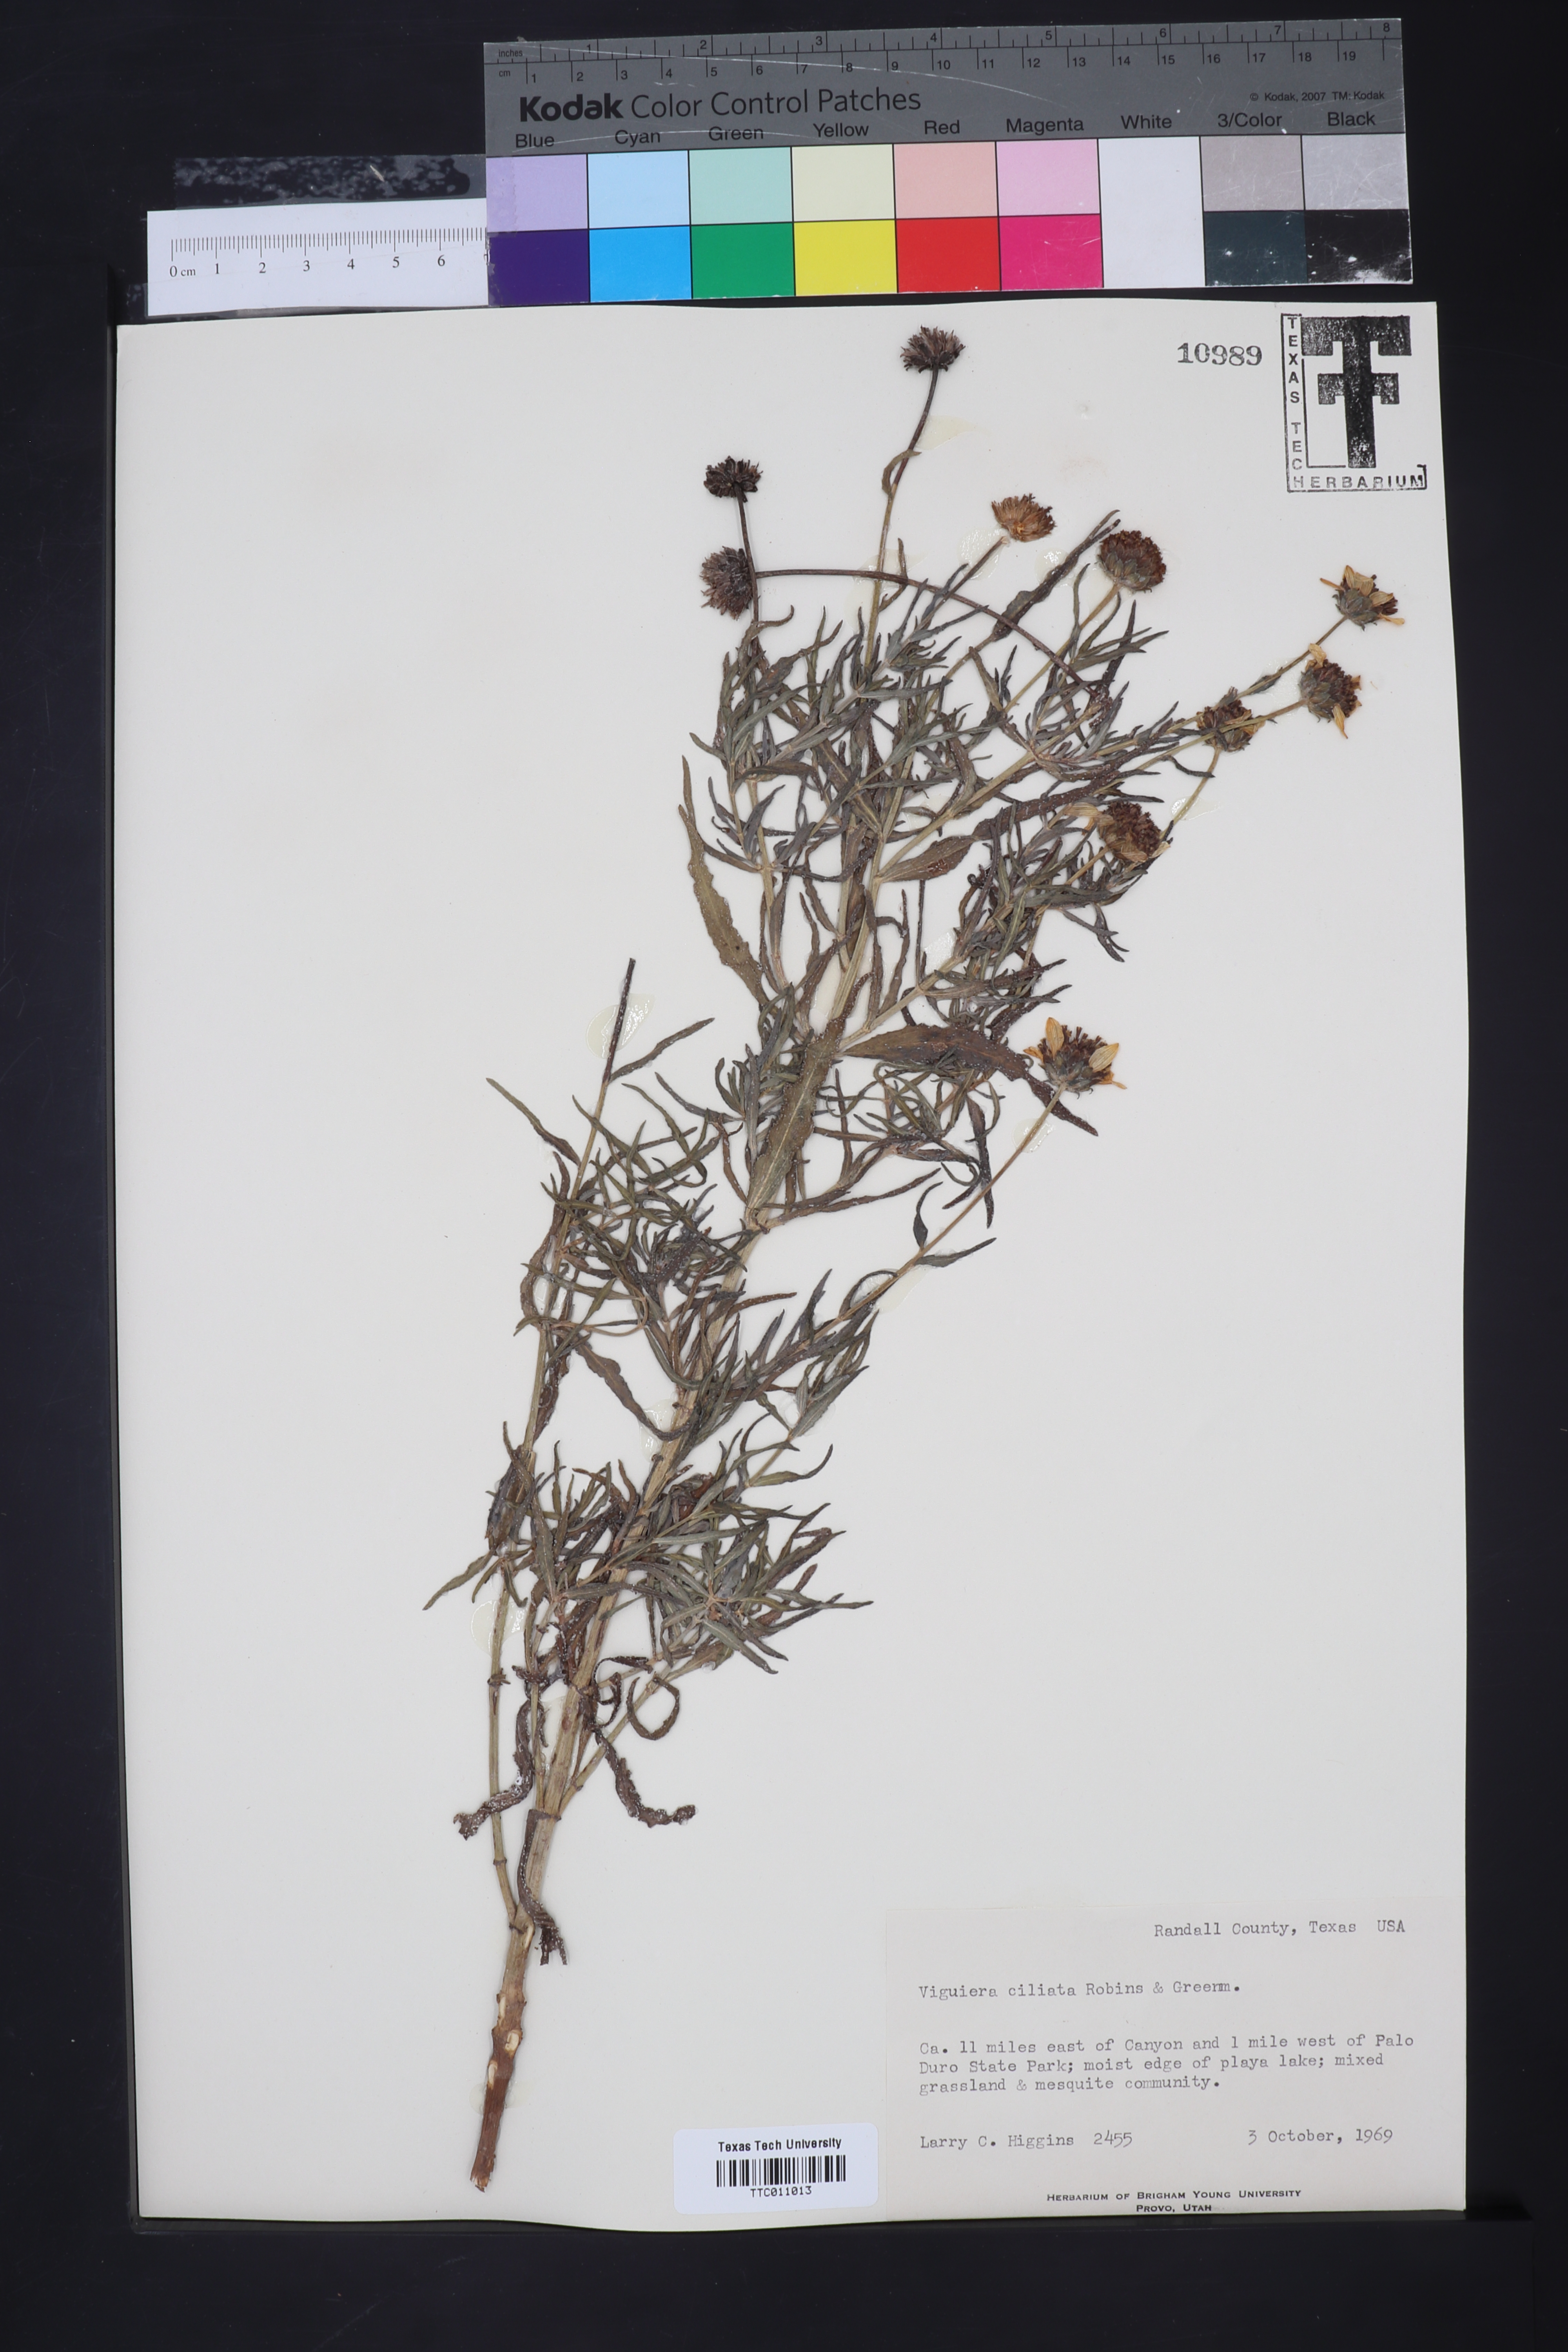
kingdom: Plantae
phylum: Tracheophyta
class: Magnoliopsida
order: Asterales
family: Asteraceae
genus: Heliomeris
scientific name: Heliomeris hispida
